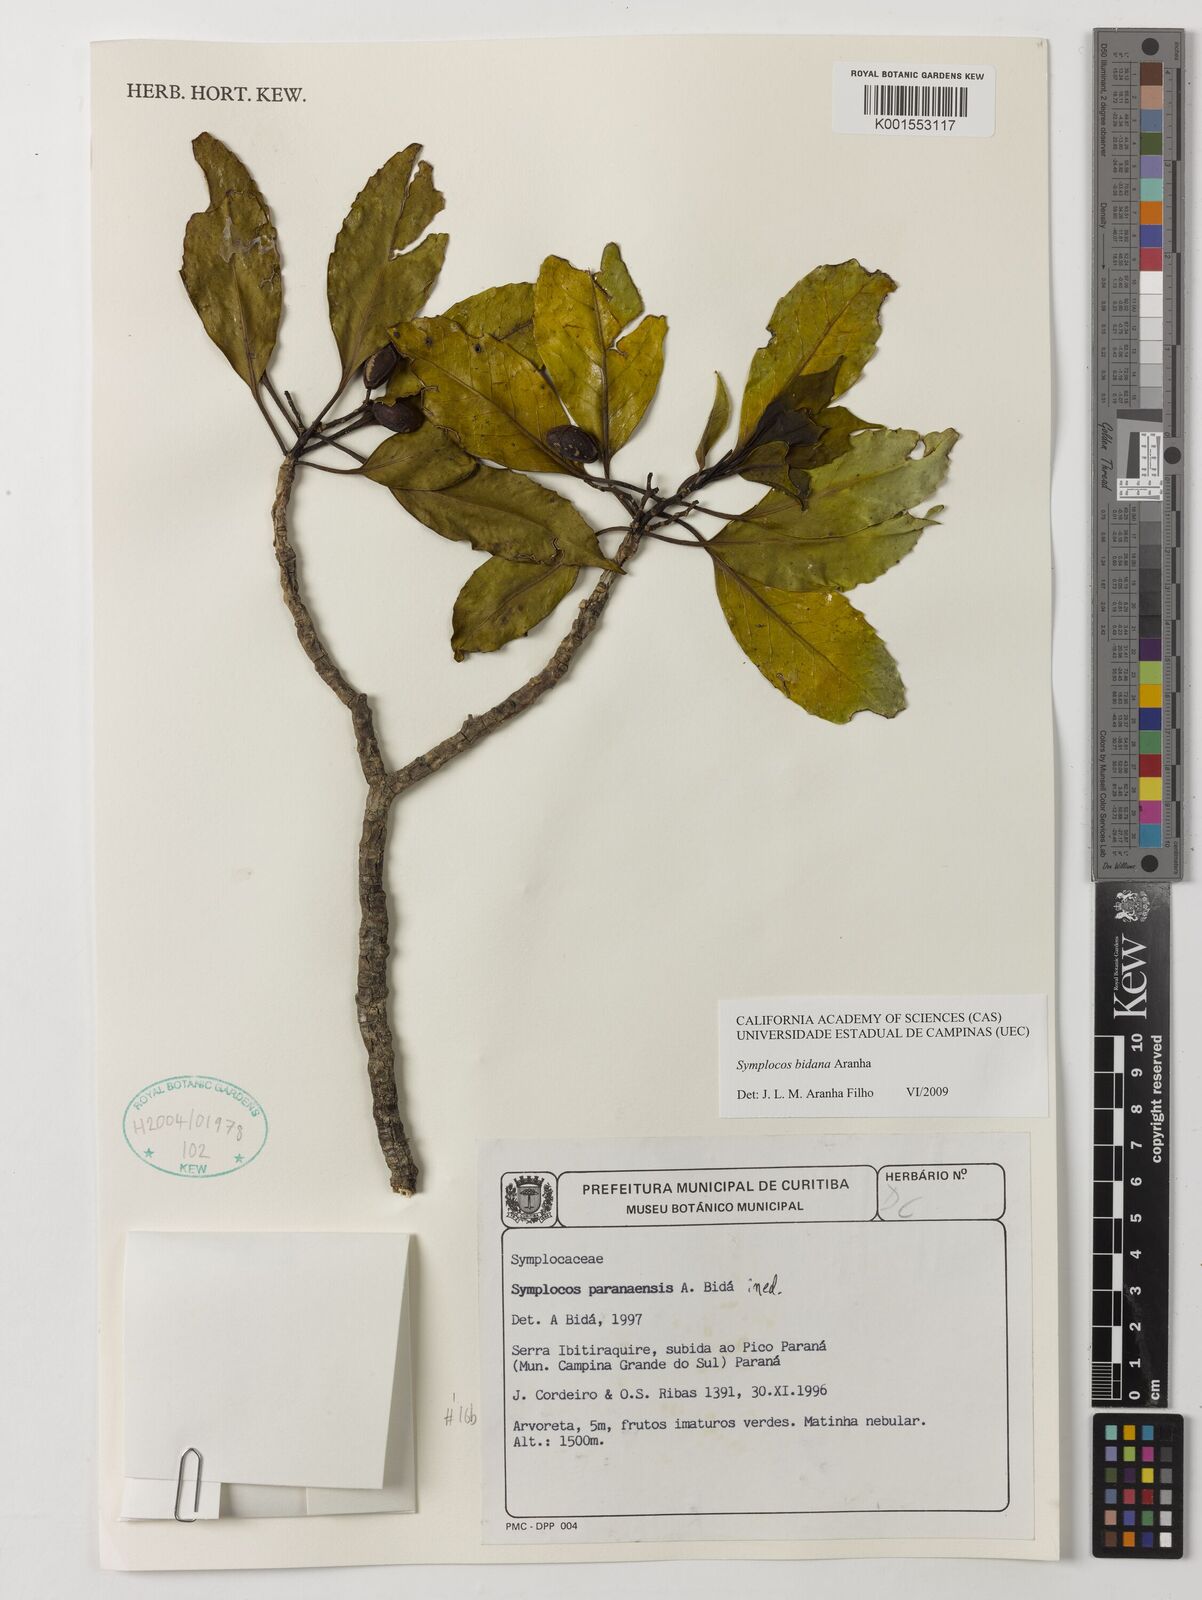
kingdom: Plantae
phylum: Tracheophyta
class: Magnoliopsida
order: Ericales
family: Symplocaceae
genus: Symplocos
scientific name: Symplocos bidana
